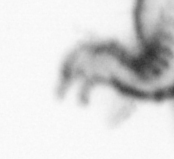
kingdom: Animalia
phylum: Annelida
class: Polychaeta
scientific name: Polychaeta
